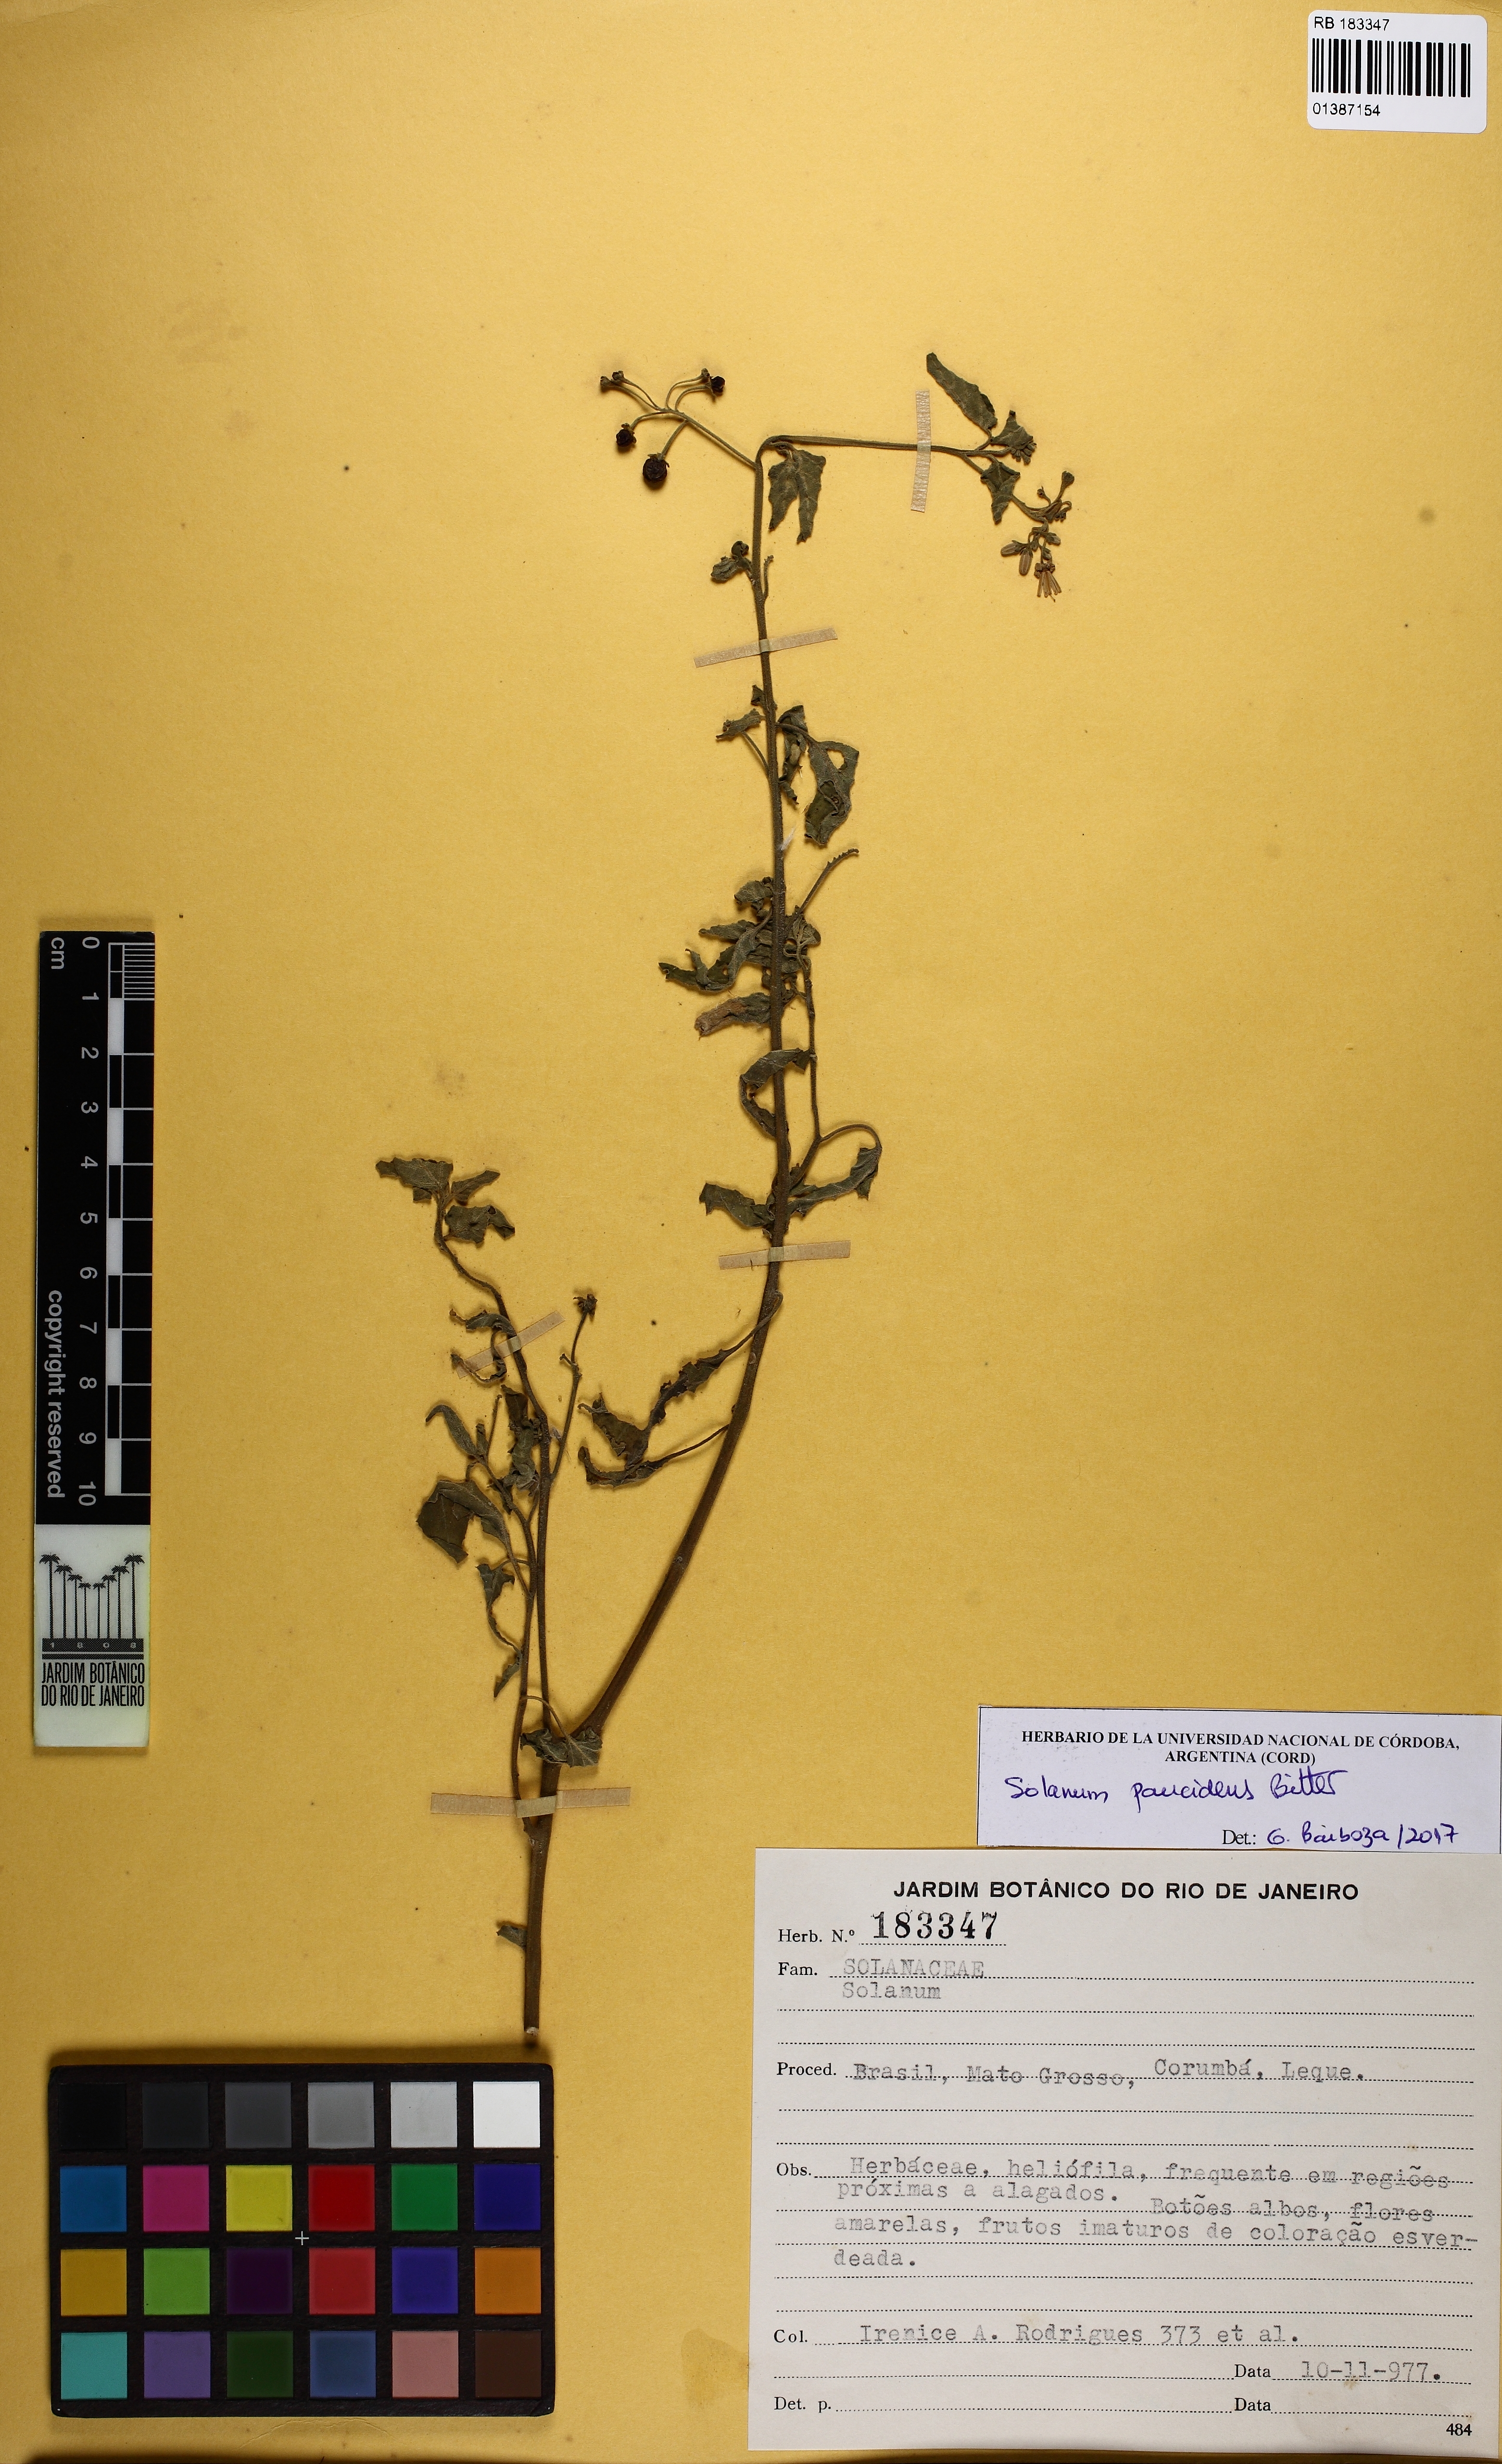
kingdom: Plantae
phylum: Tracheophyta
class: Magnoliopsida
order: Solanales
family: Solanaceae
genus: Solanum
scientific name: Solanum paucidens
